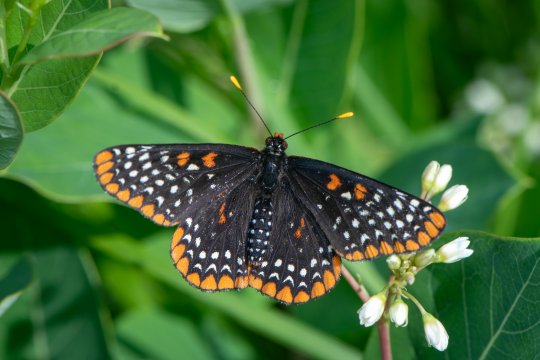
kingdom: Animalia
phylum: Arthropoda
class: Insecta
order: Lepidoptera
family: Nymphalidae
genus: Euphydryas
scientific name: Euphydryas phaeton
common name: Baltimore Checkerspot
